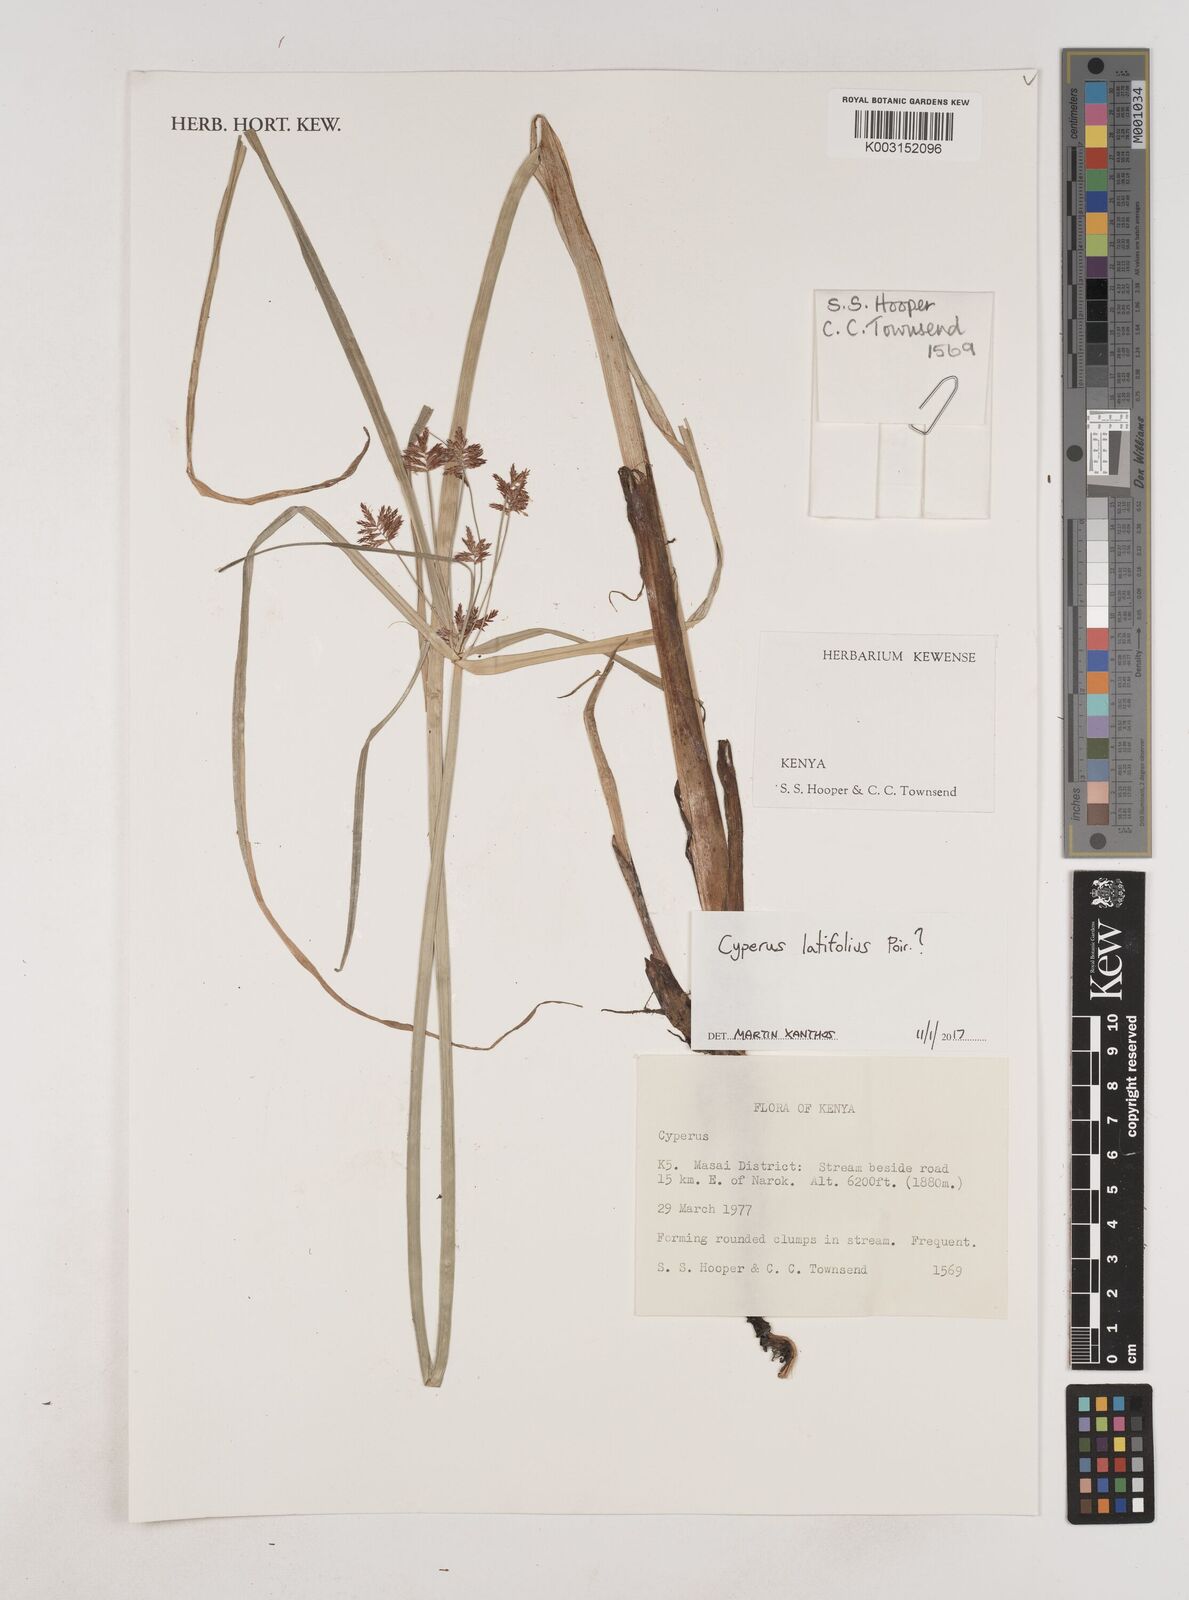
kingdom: Plantae
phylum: Tracheophyta
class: Liliopsida
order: Poales
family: Cyperaceae
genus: Cyperus
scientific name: Cyperus latifolius
